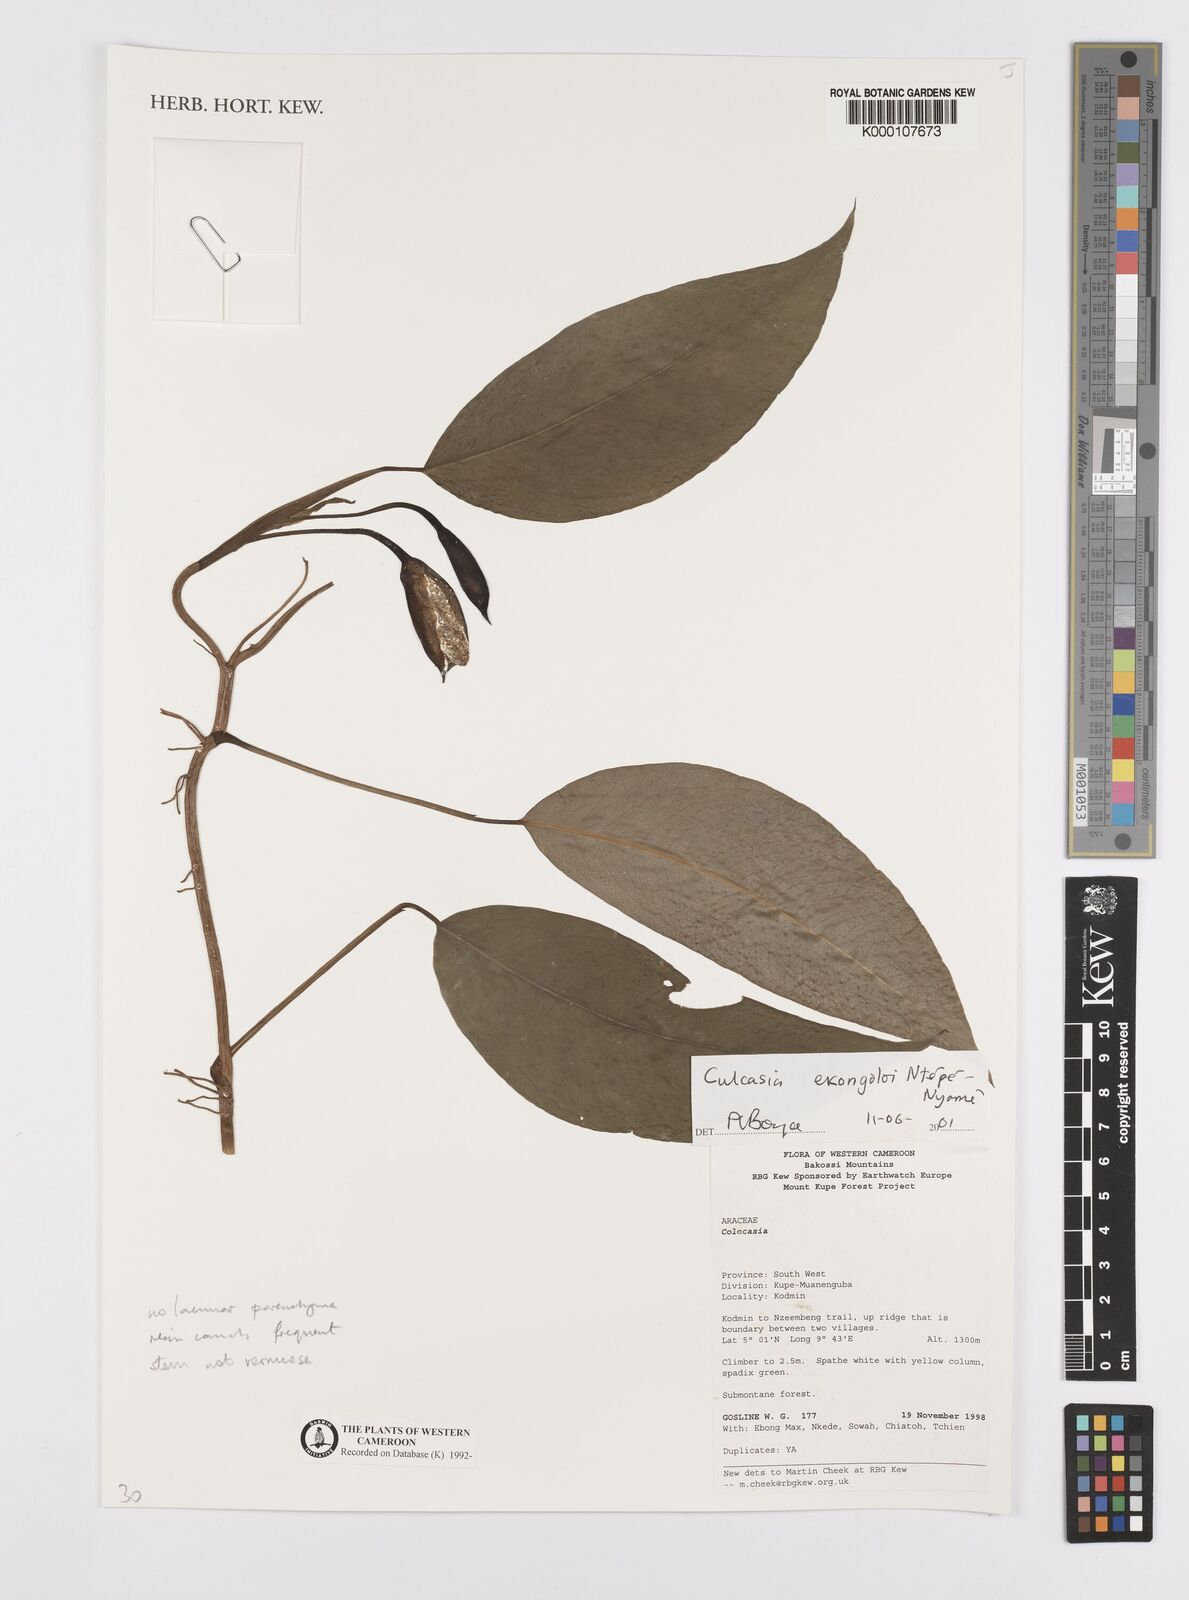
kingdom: Plantae
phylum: Tracheophyta
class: Liliopsida
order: Alismatales
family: Araceae
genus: Culcasia
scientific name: Culcasia ekongoloi
